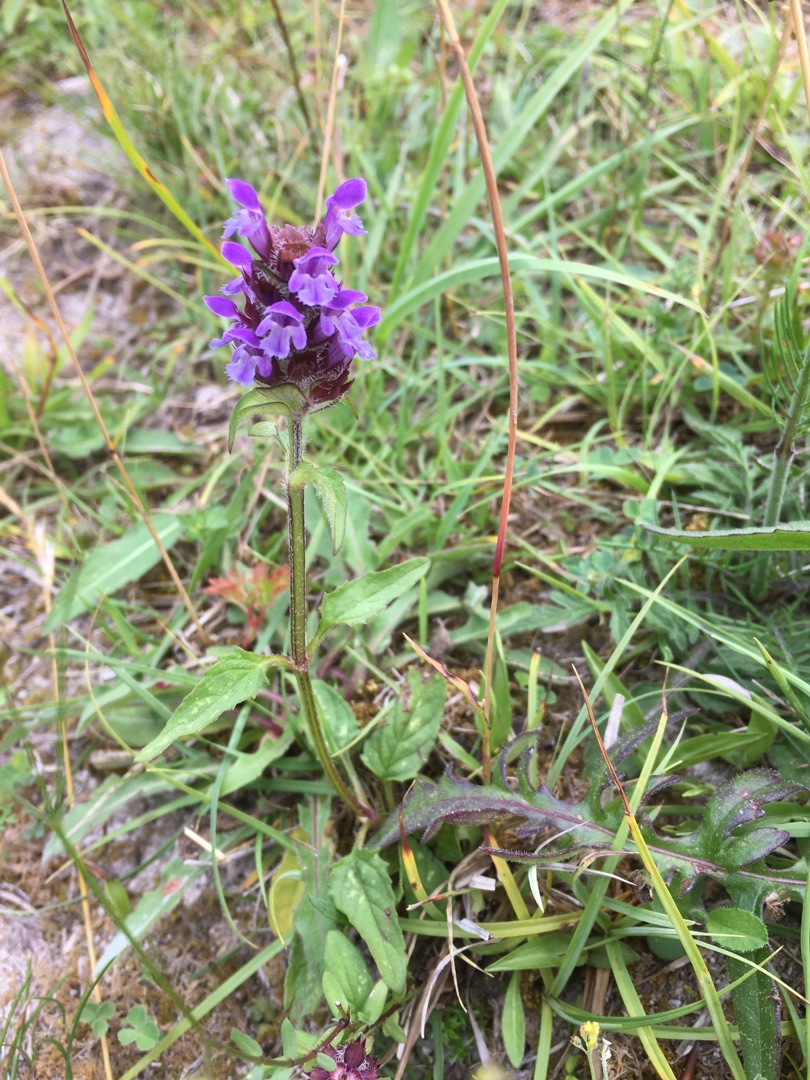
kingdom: Plantae
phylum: Tracheophyta
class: Magnoliopsida
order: Lamiales
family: Lamiaceae
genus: Prunella
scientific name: Prunella vulgaris
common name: Almindelig brunelle
